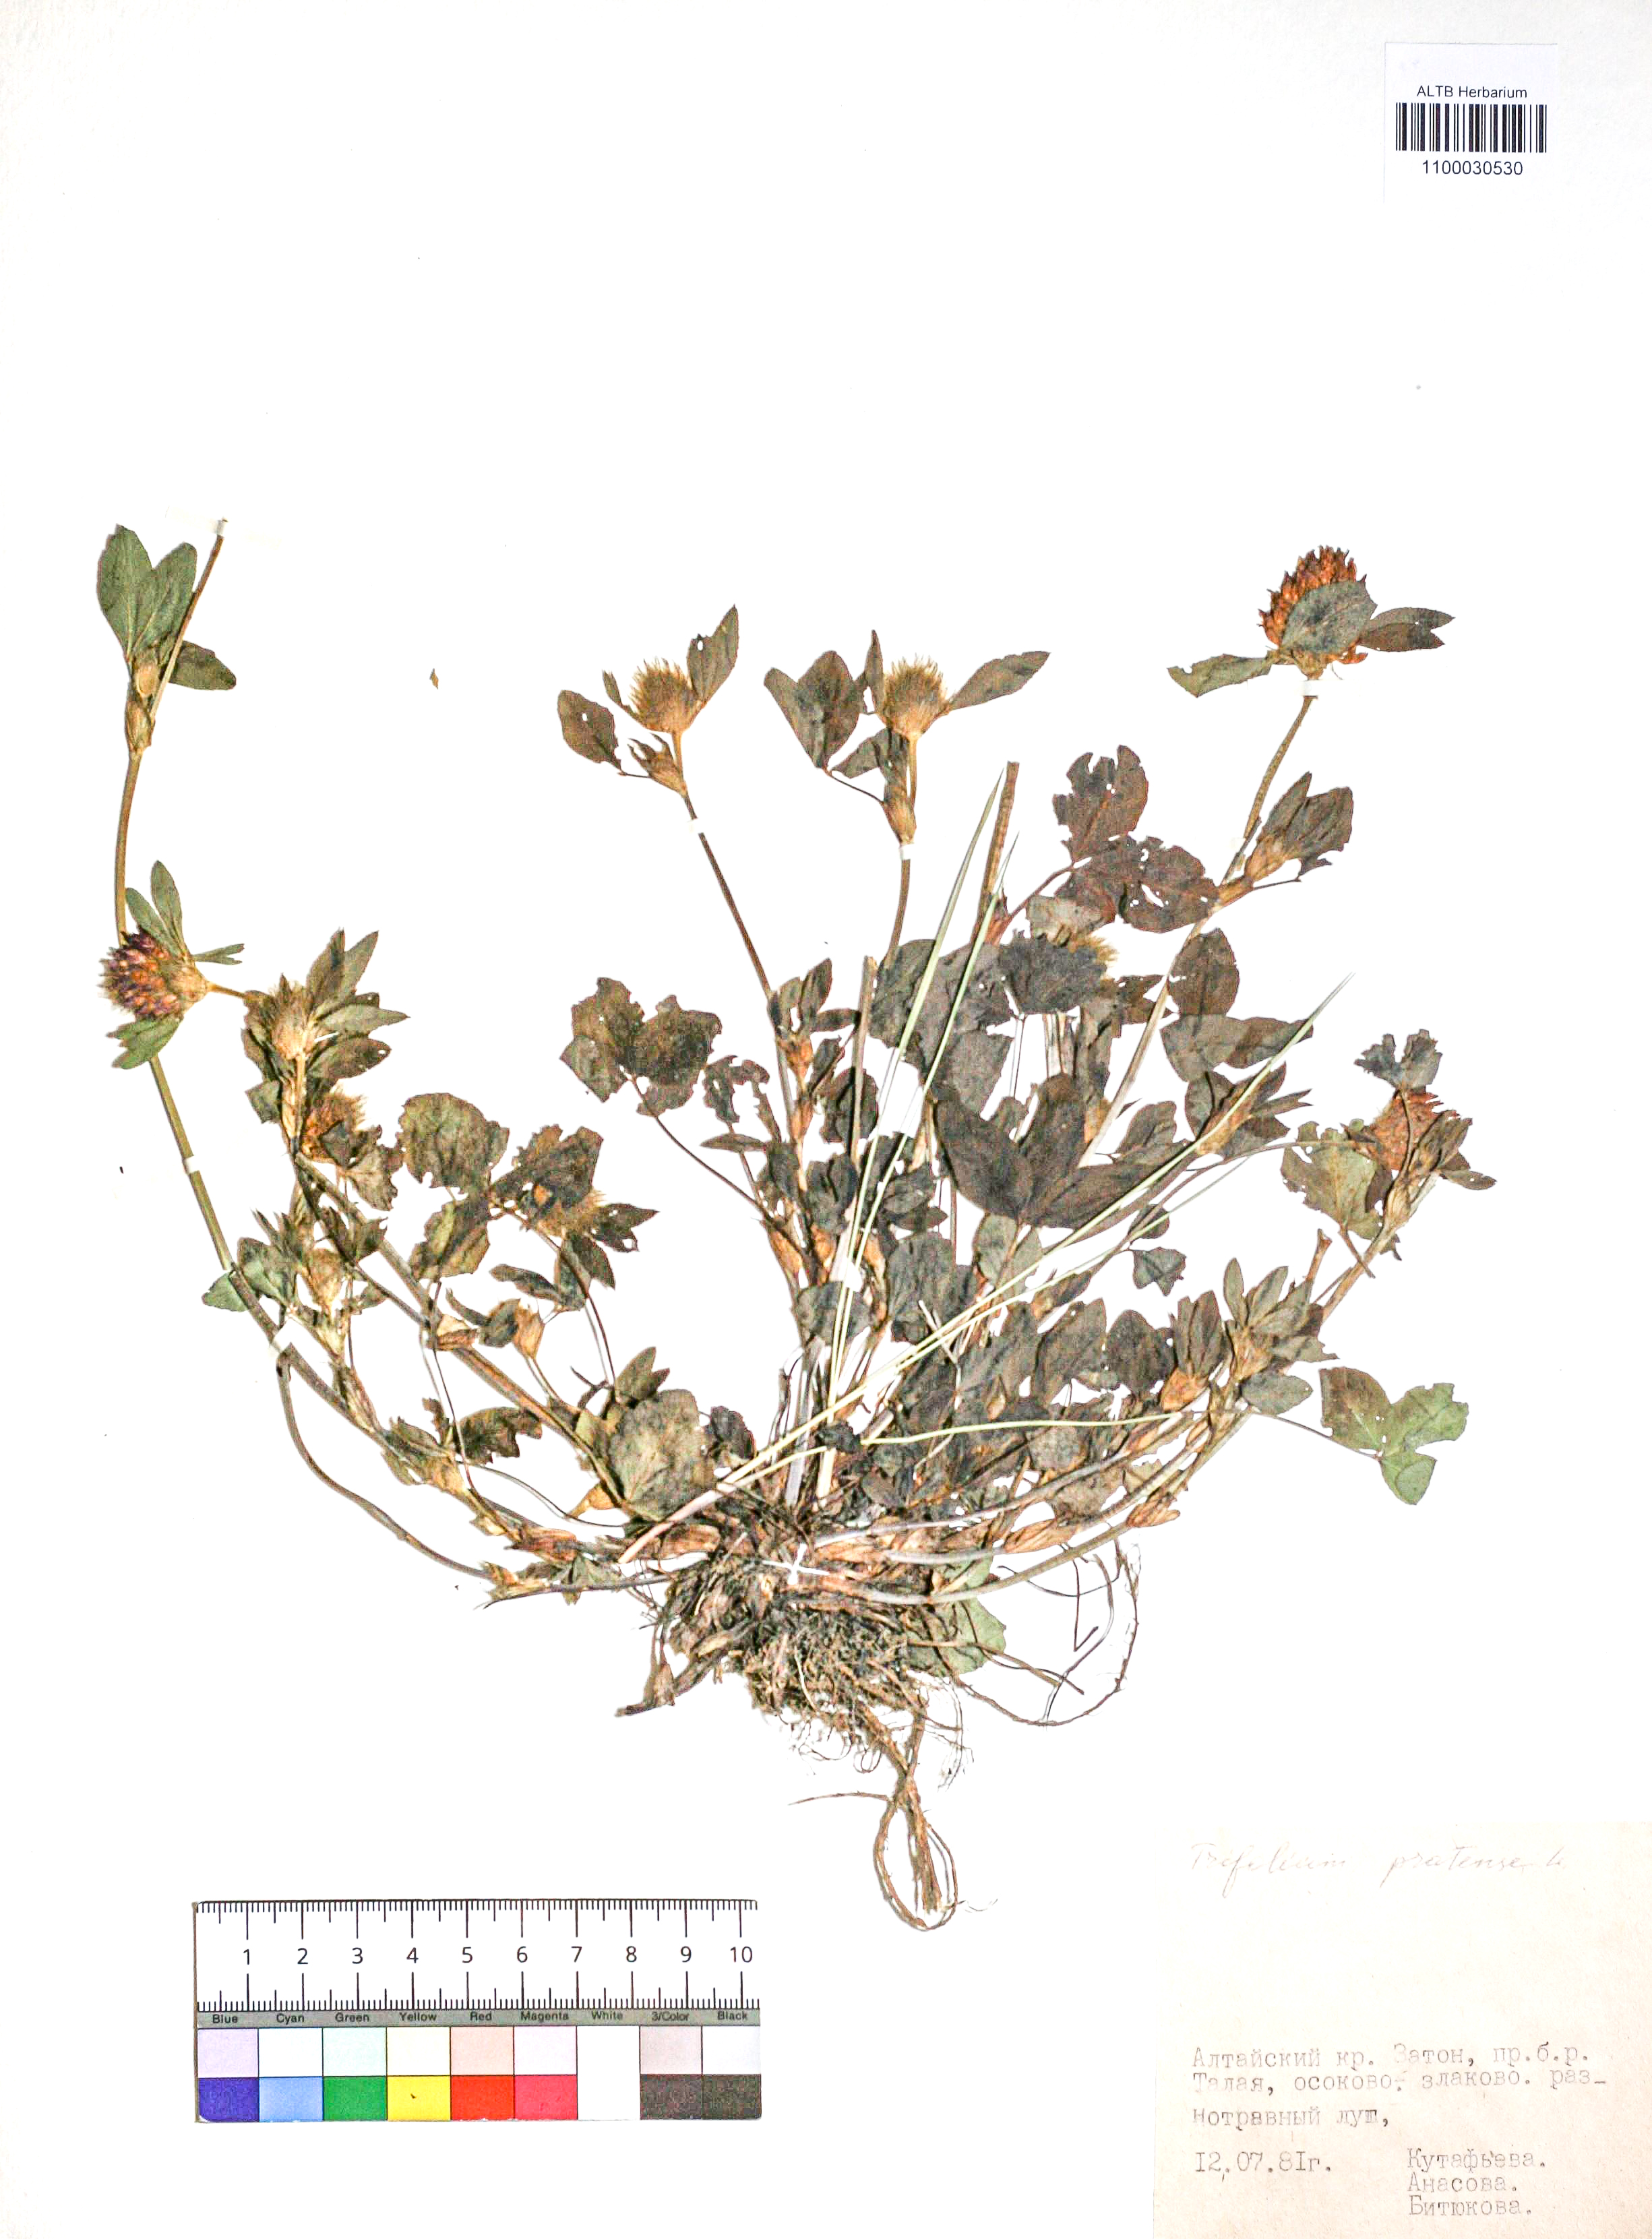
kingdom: Plantae
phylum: Tracheophyta
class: Magnoliopsida
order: Fabales
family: Fabaceae
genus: Trifolium
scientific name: Trifolium pratense
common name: Red clover
